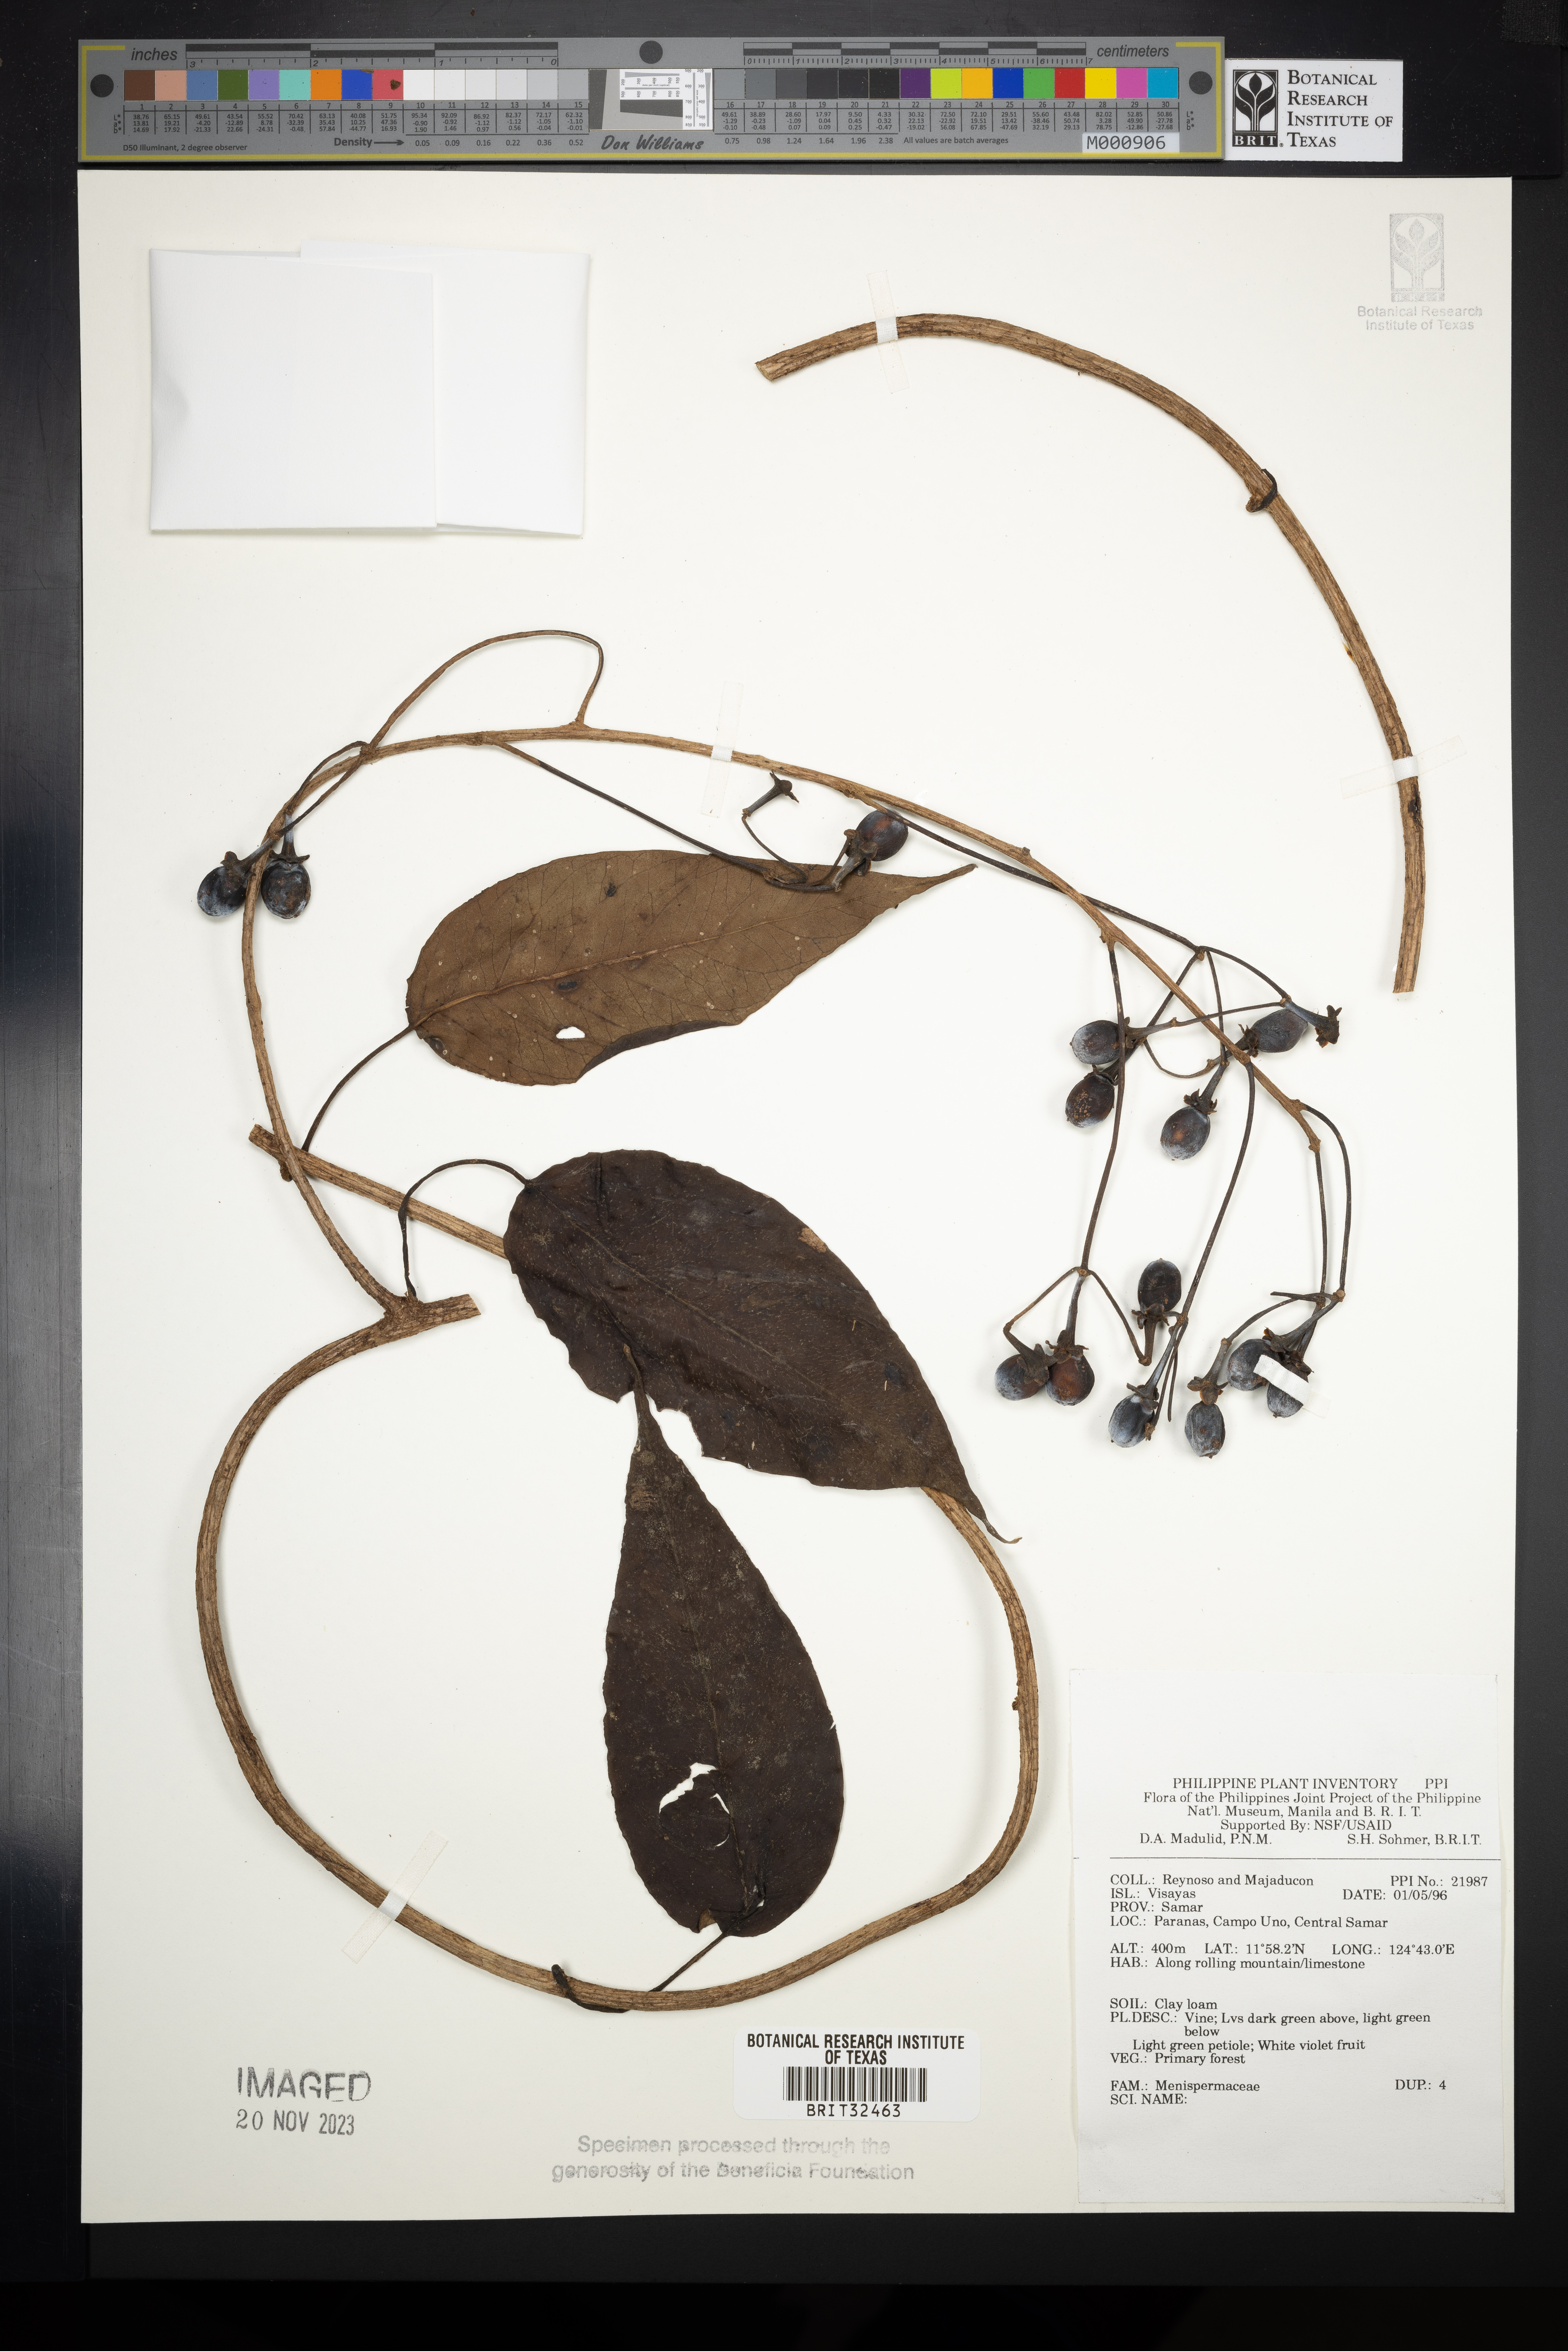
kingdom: Plantae
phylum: Tracheophyta
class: Magnoliopsida
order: Ranunculales
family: Menispermaceae
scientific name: Menispermaceae
